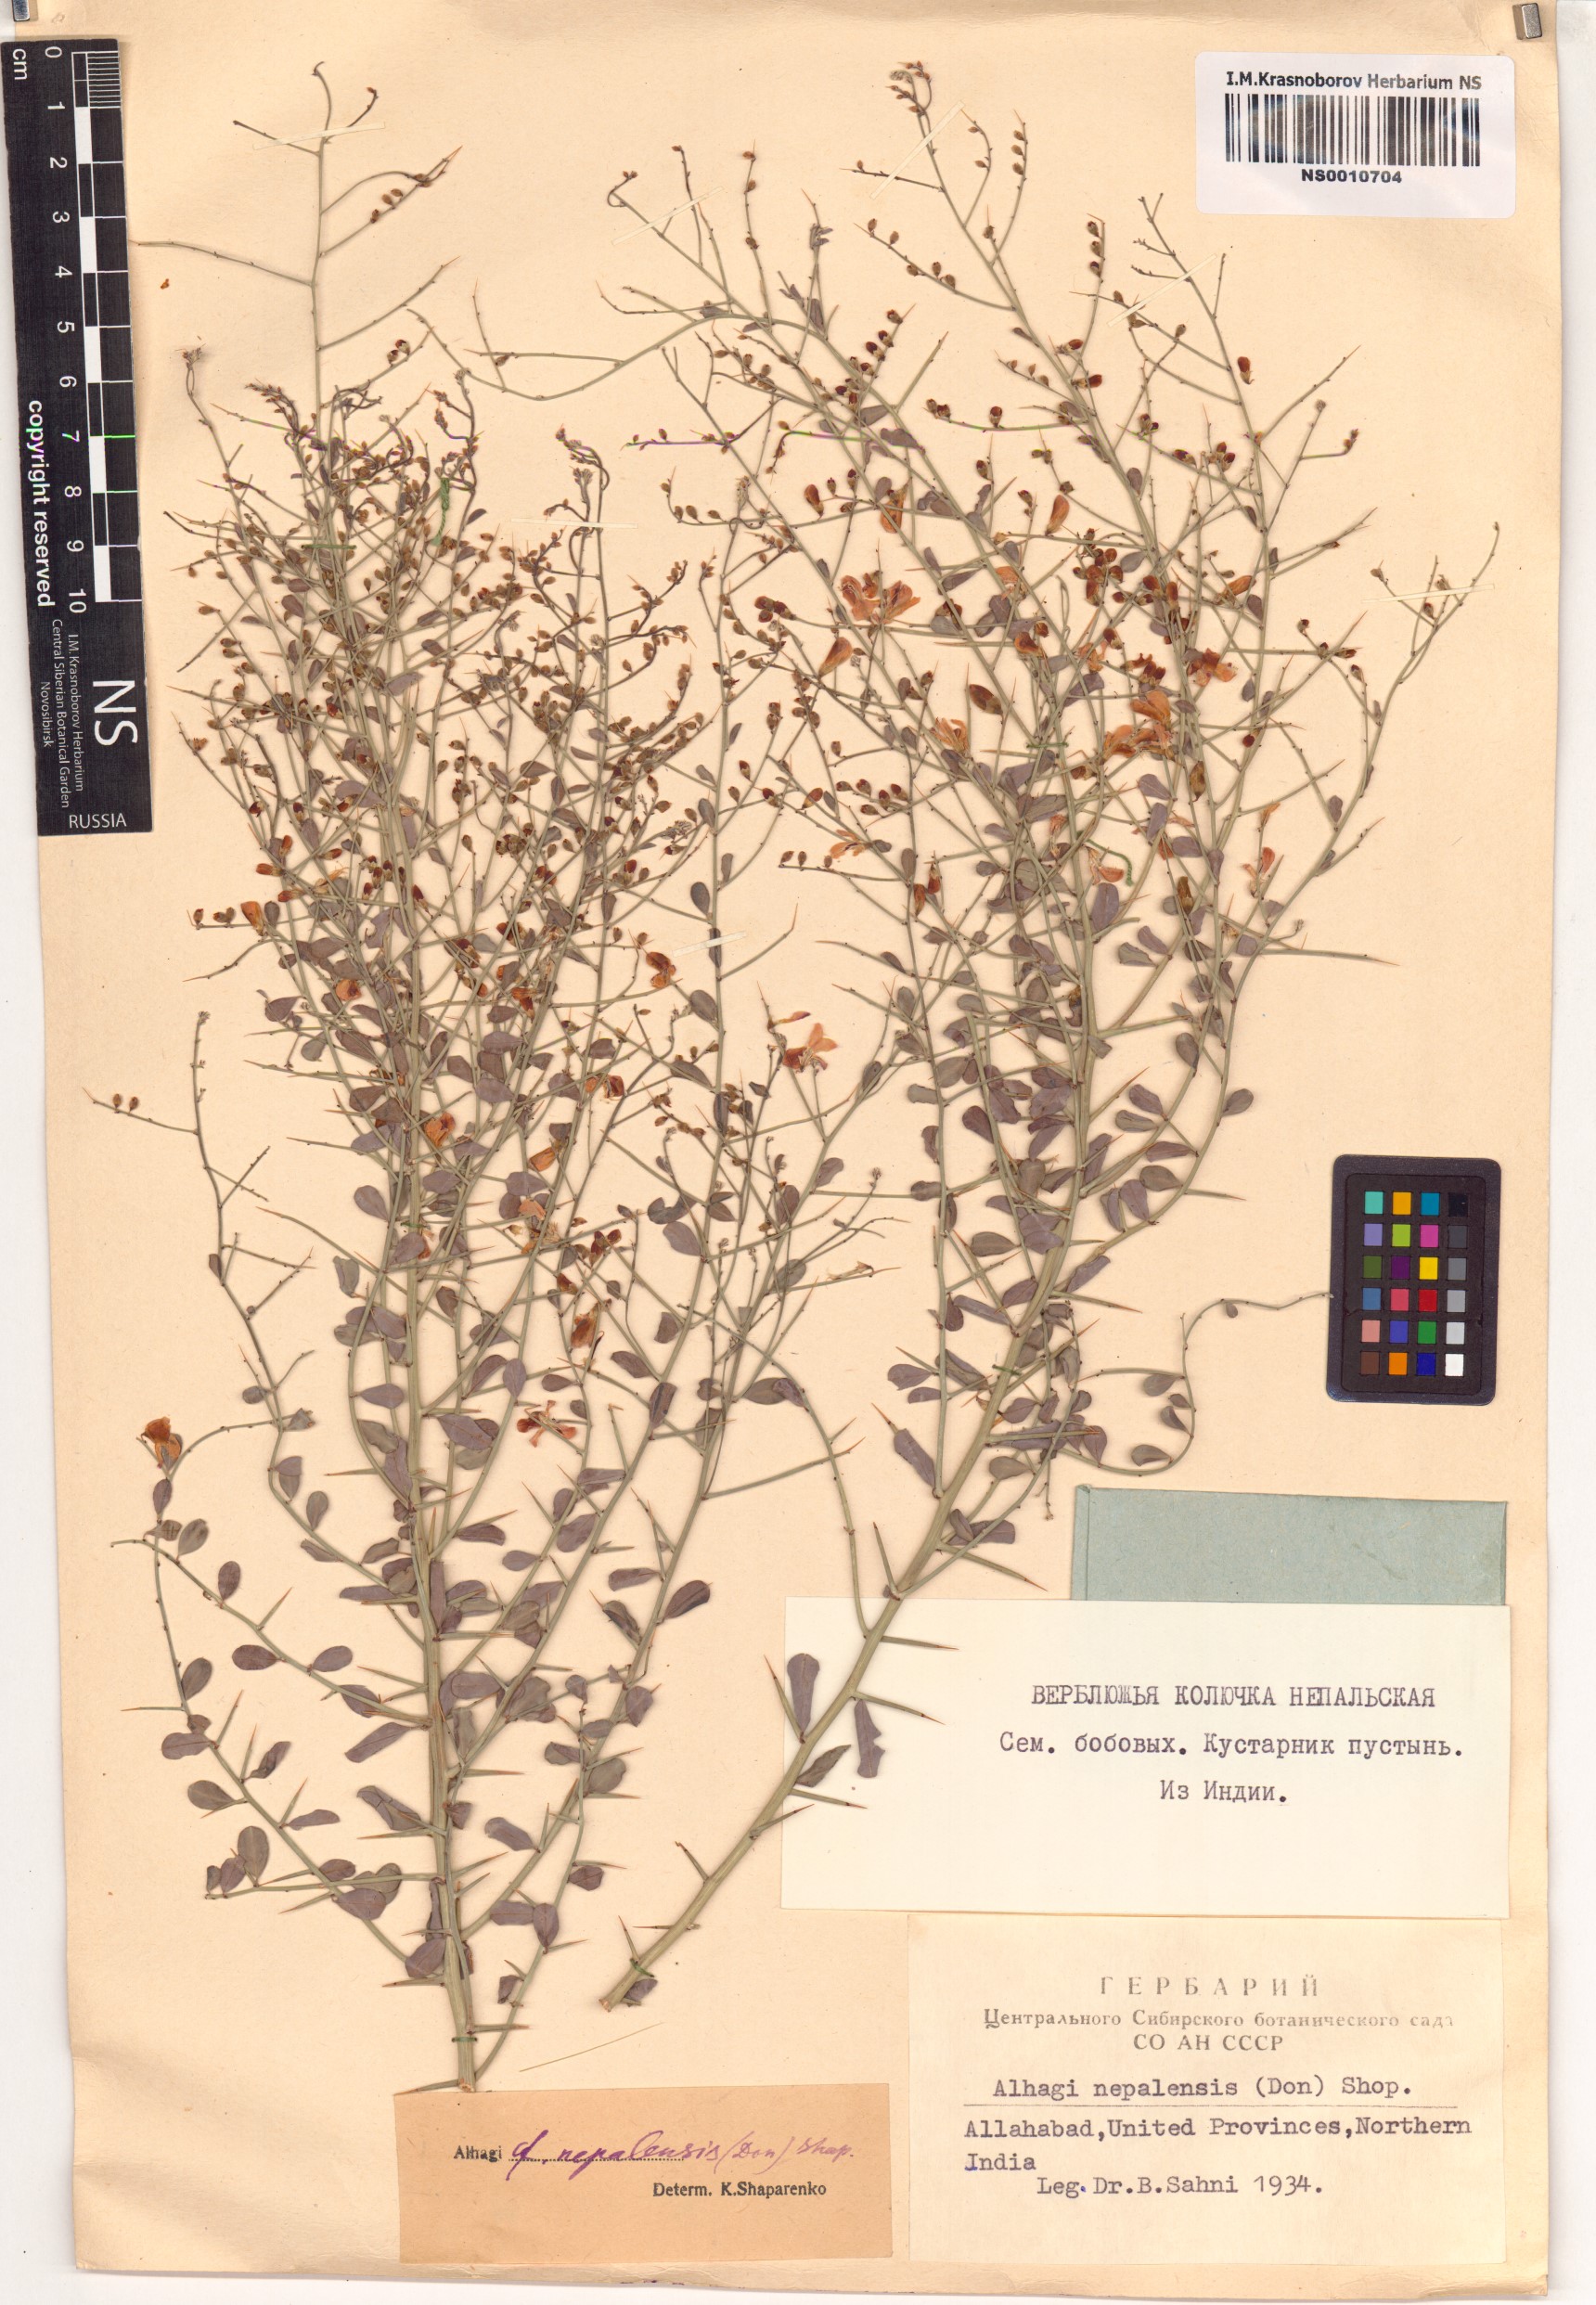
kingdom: Plantae
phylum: Tracheophyta
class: Magnoliopsida
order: Fabales
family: Fabaceae
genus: Alhagi
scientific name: Alhagi pseudalhagi
